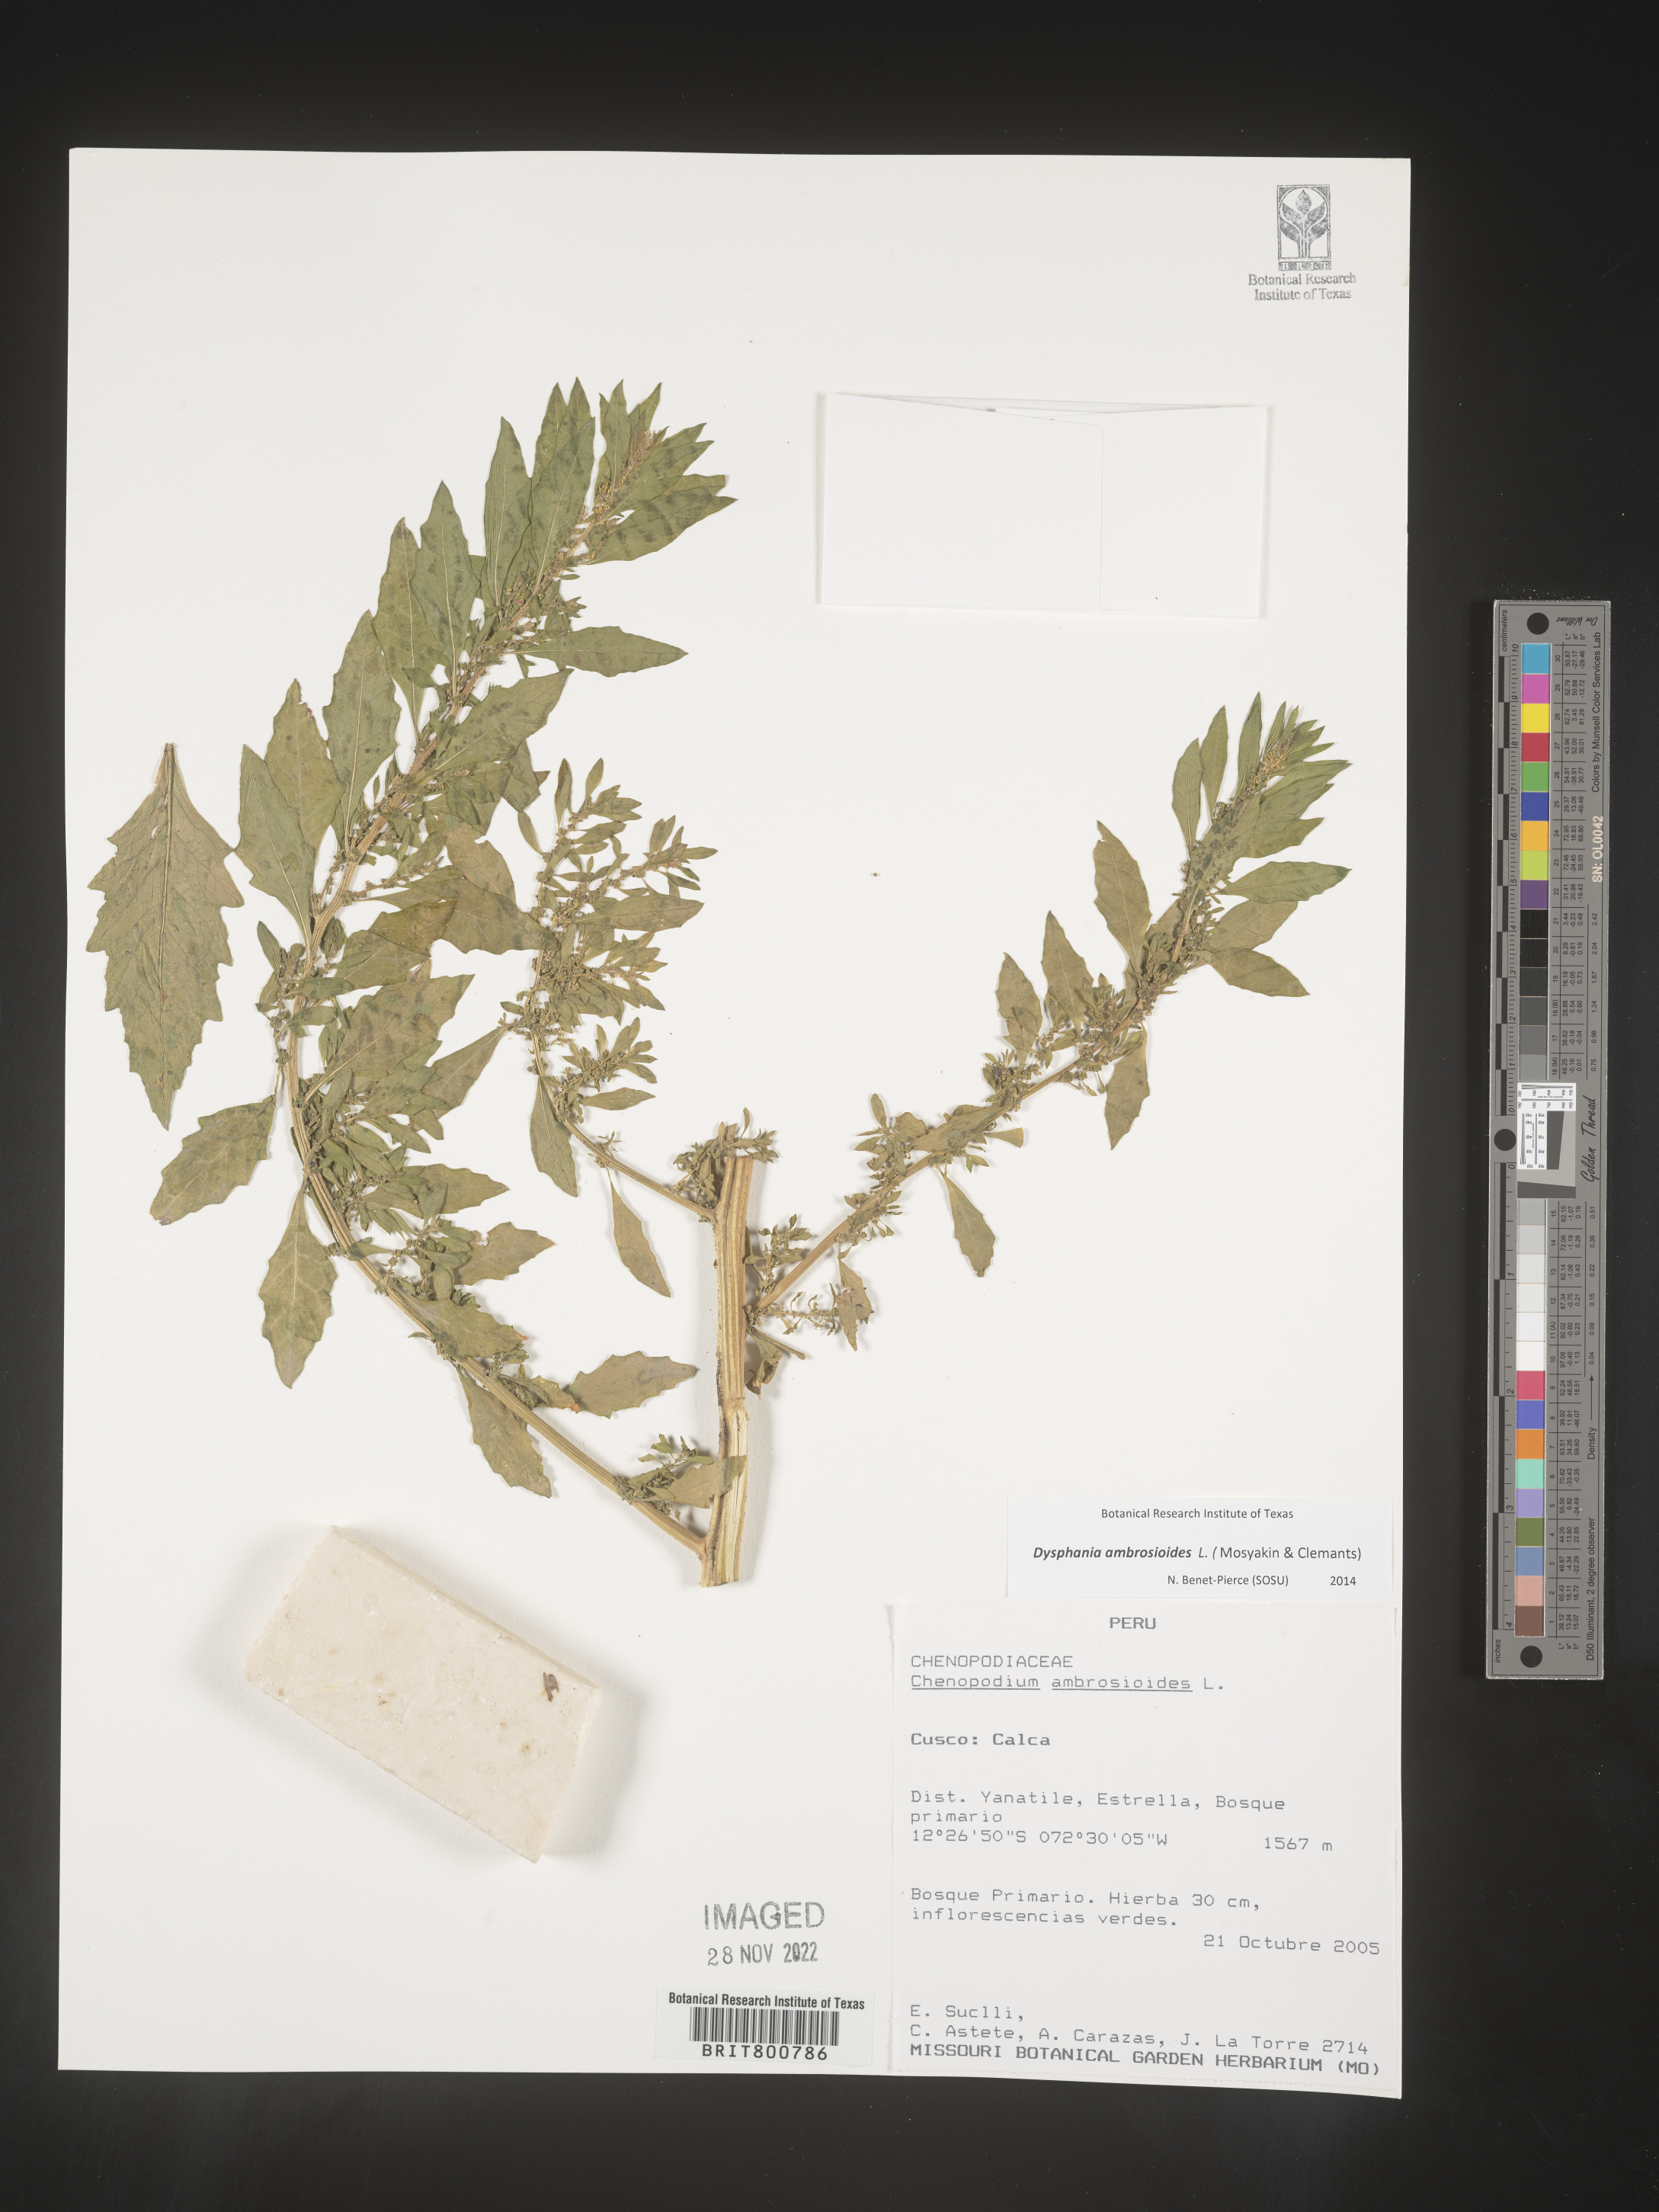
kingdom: Plantae
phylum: Tracheophyta
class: Magnoliopsida
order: Caryophyllales
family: Amaranthaceae
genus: Chenopodium
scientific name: Chenopodium
